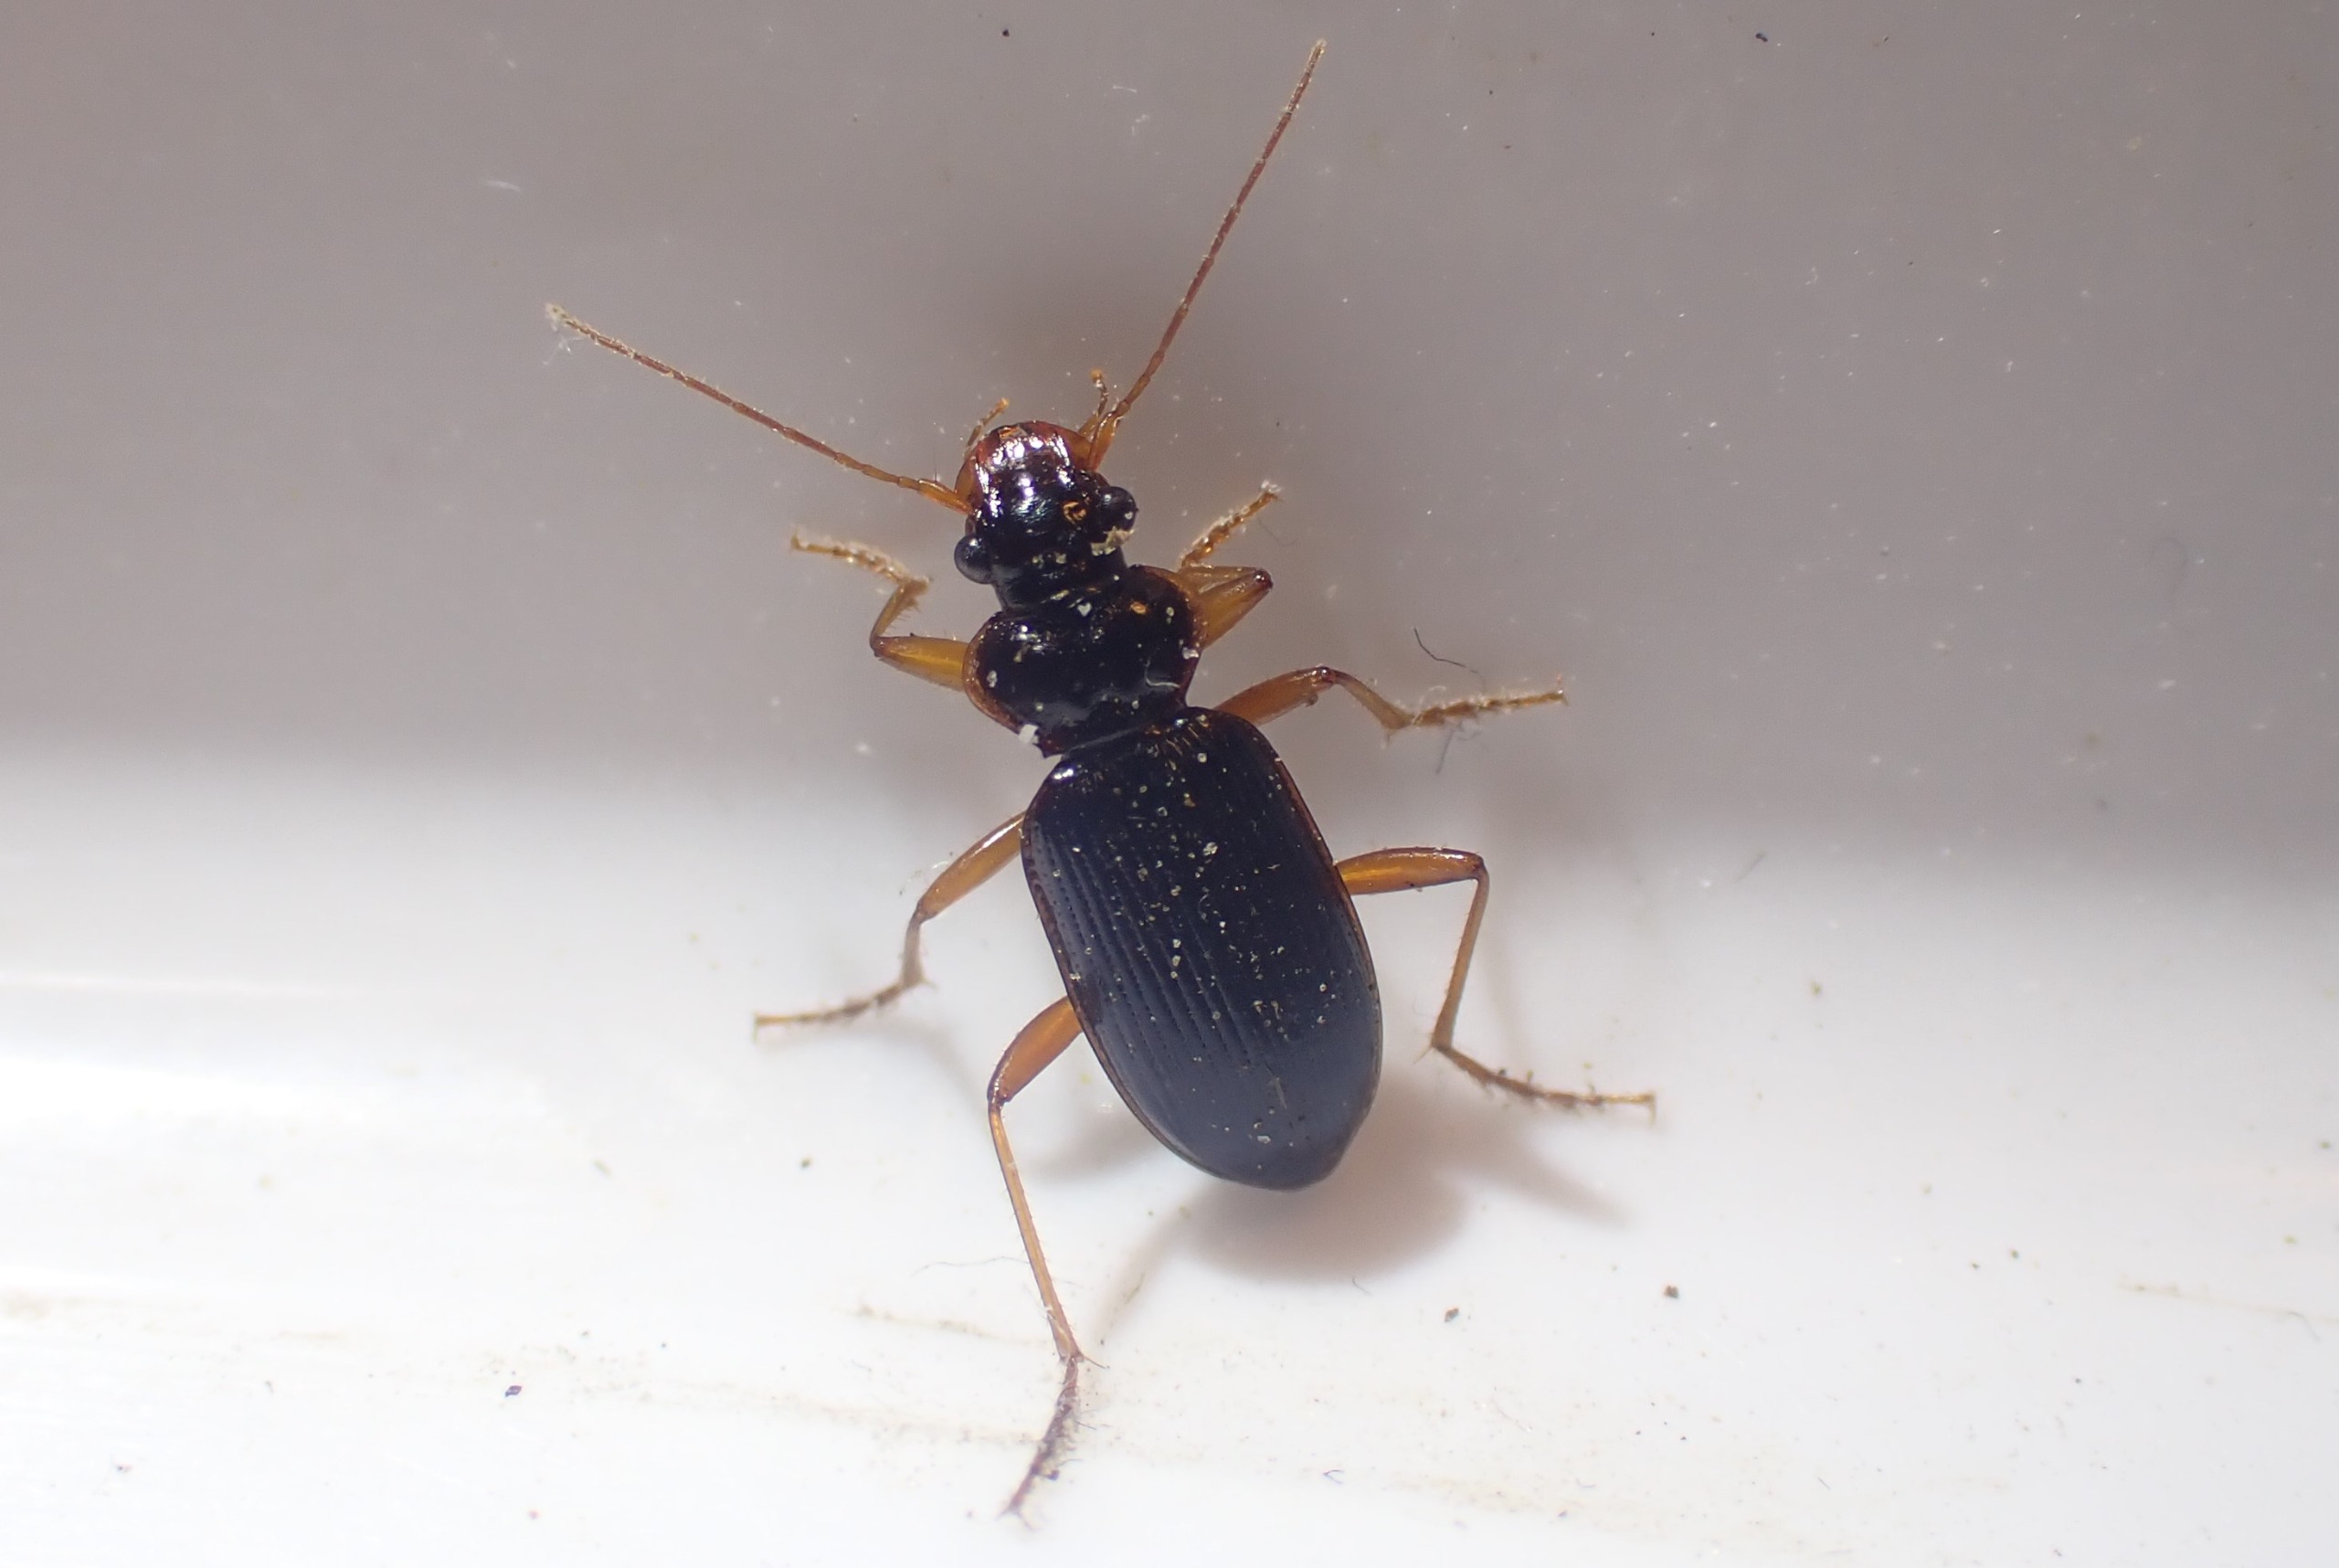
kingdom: Animalia
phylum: Arthropoda
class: Insecta
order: Coleoptera
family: Carabidae
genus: Leistus
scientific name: Leistus rufomarginatus
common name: Stor skægløber
